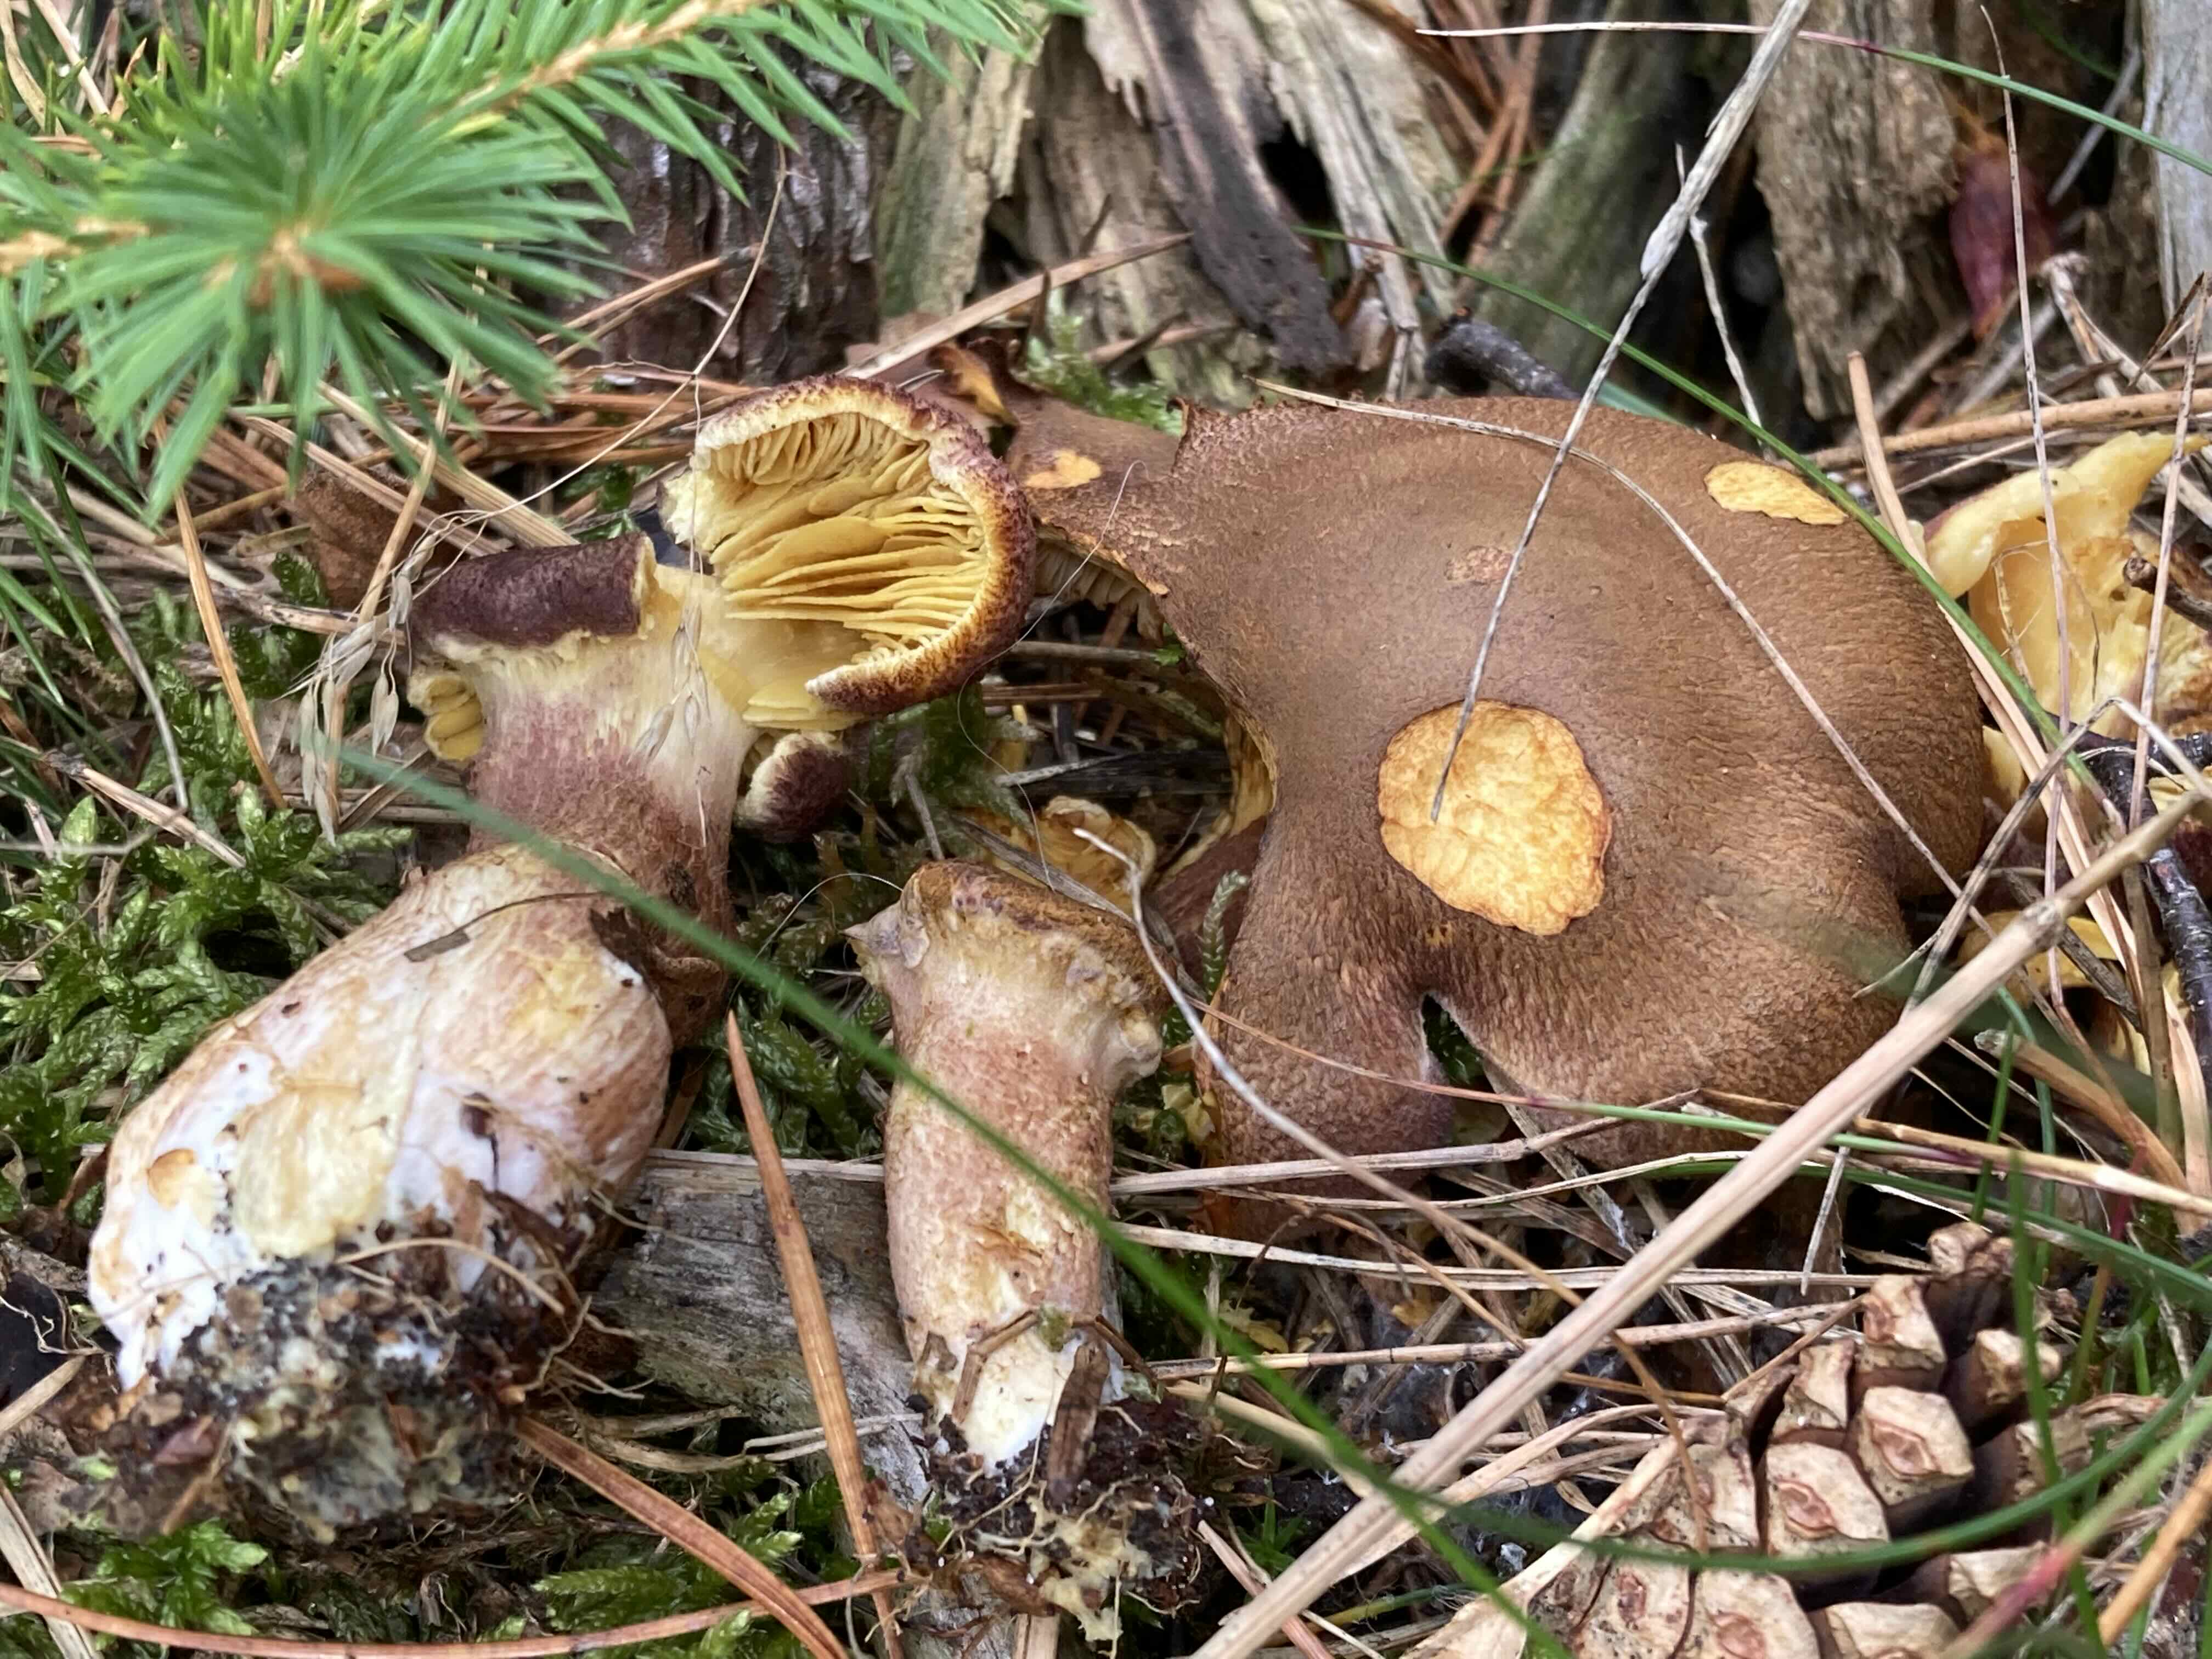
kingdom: Fungi
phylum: Basidiomycota
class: Agaricomycetes
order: Agaricales
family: Tricholomataceae
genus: Tricholomopsis
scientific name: Tricholomopsis rutilans
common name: purpur-væbnerhat
